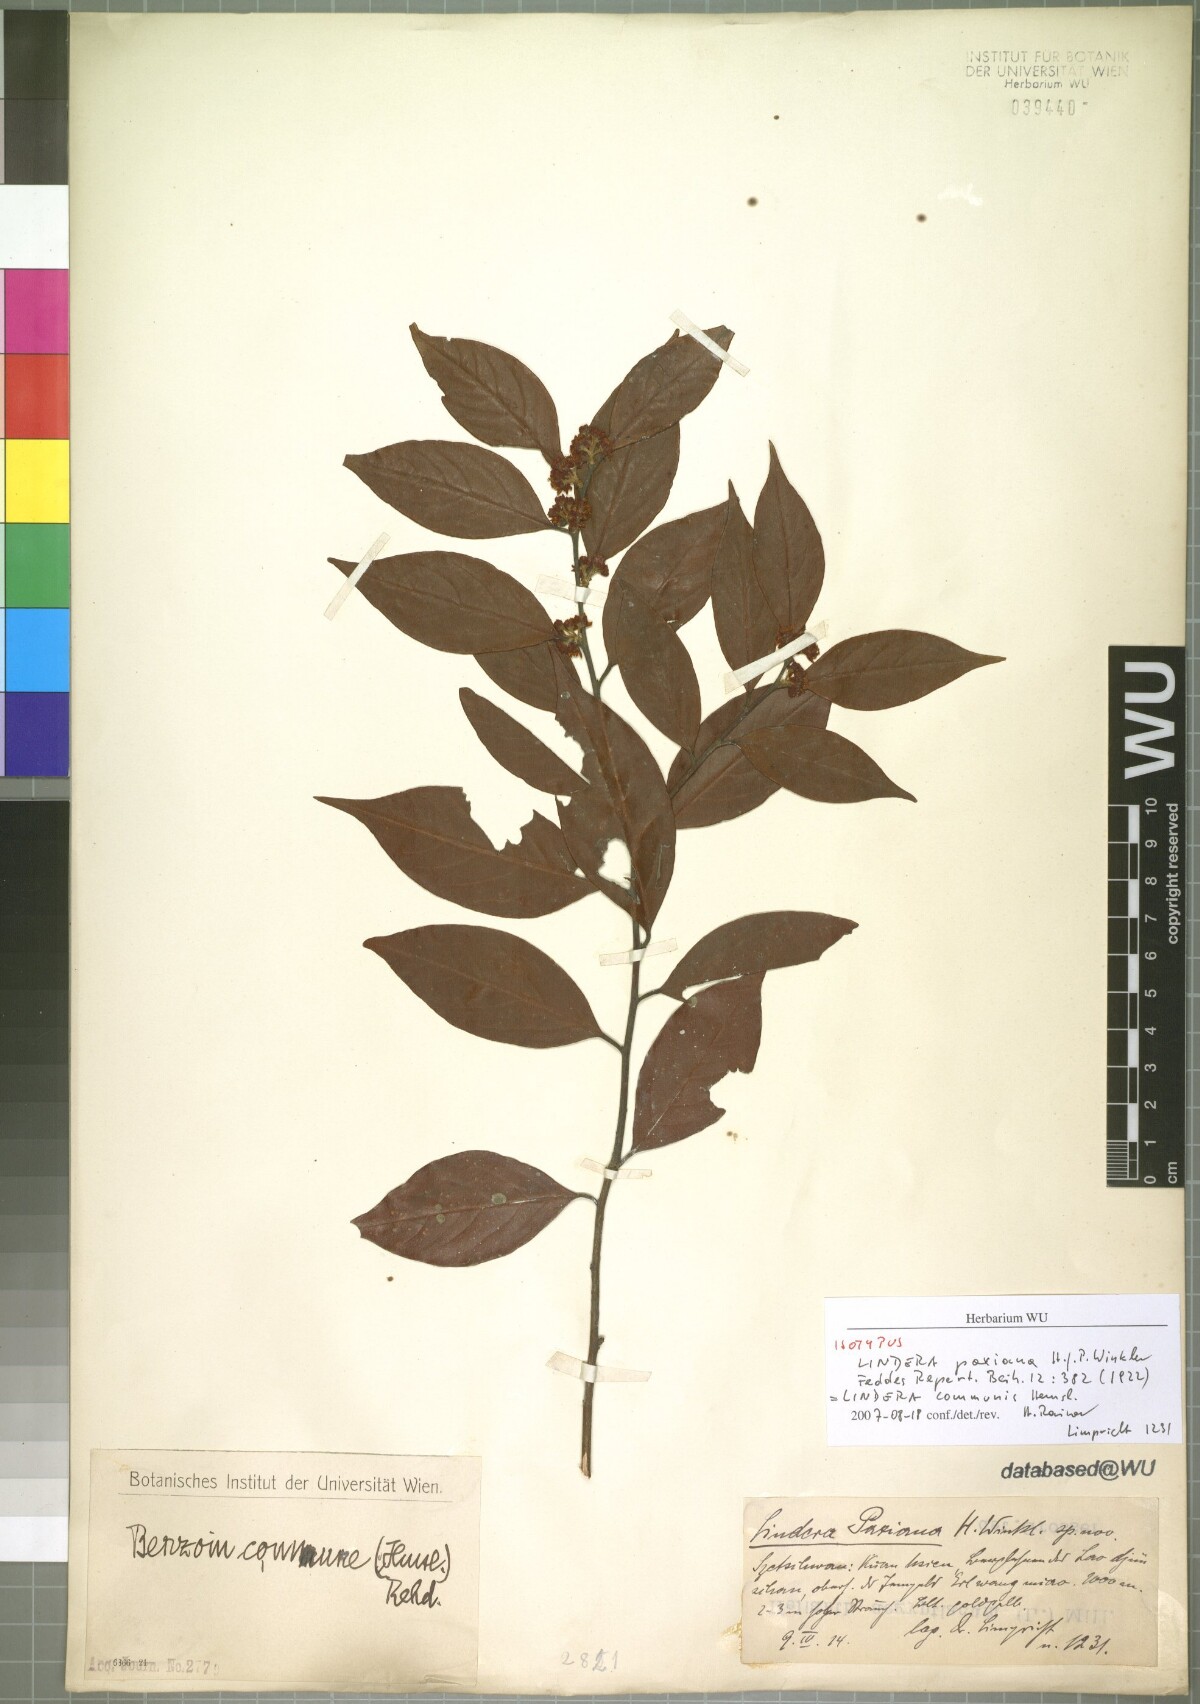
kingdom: Plantae
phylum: Tracheophyta
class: Magnoliopsida
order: Laurales
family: Lauraceae
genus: Lindera
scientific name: Lindera communis
